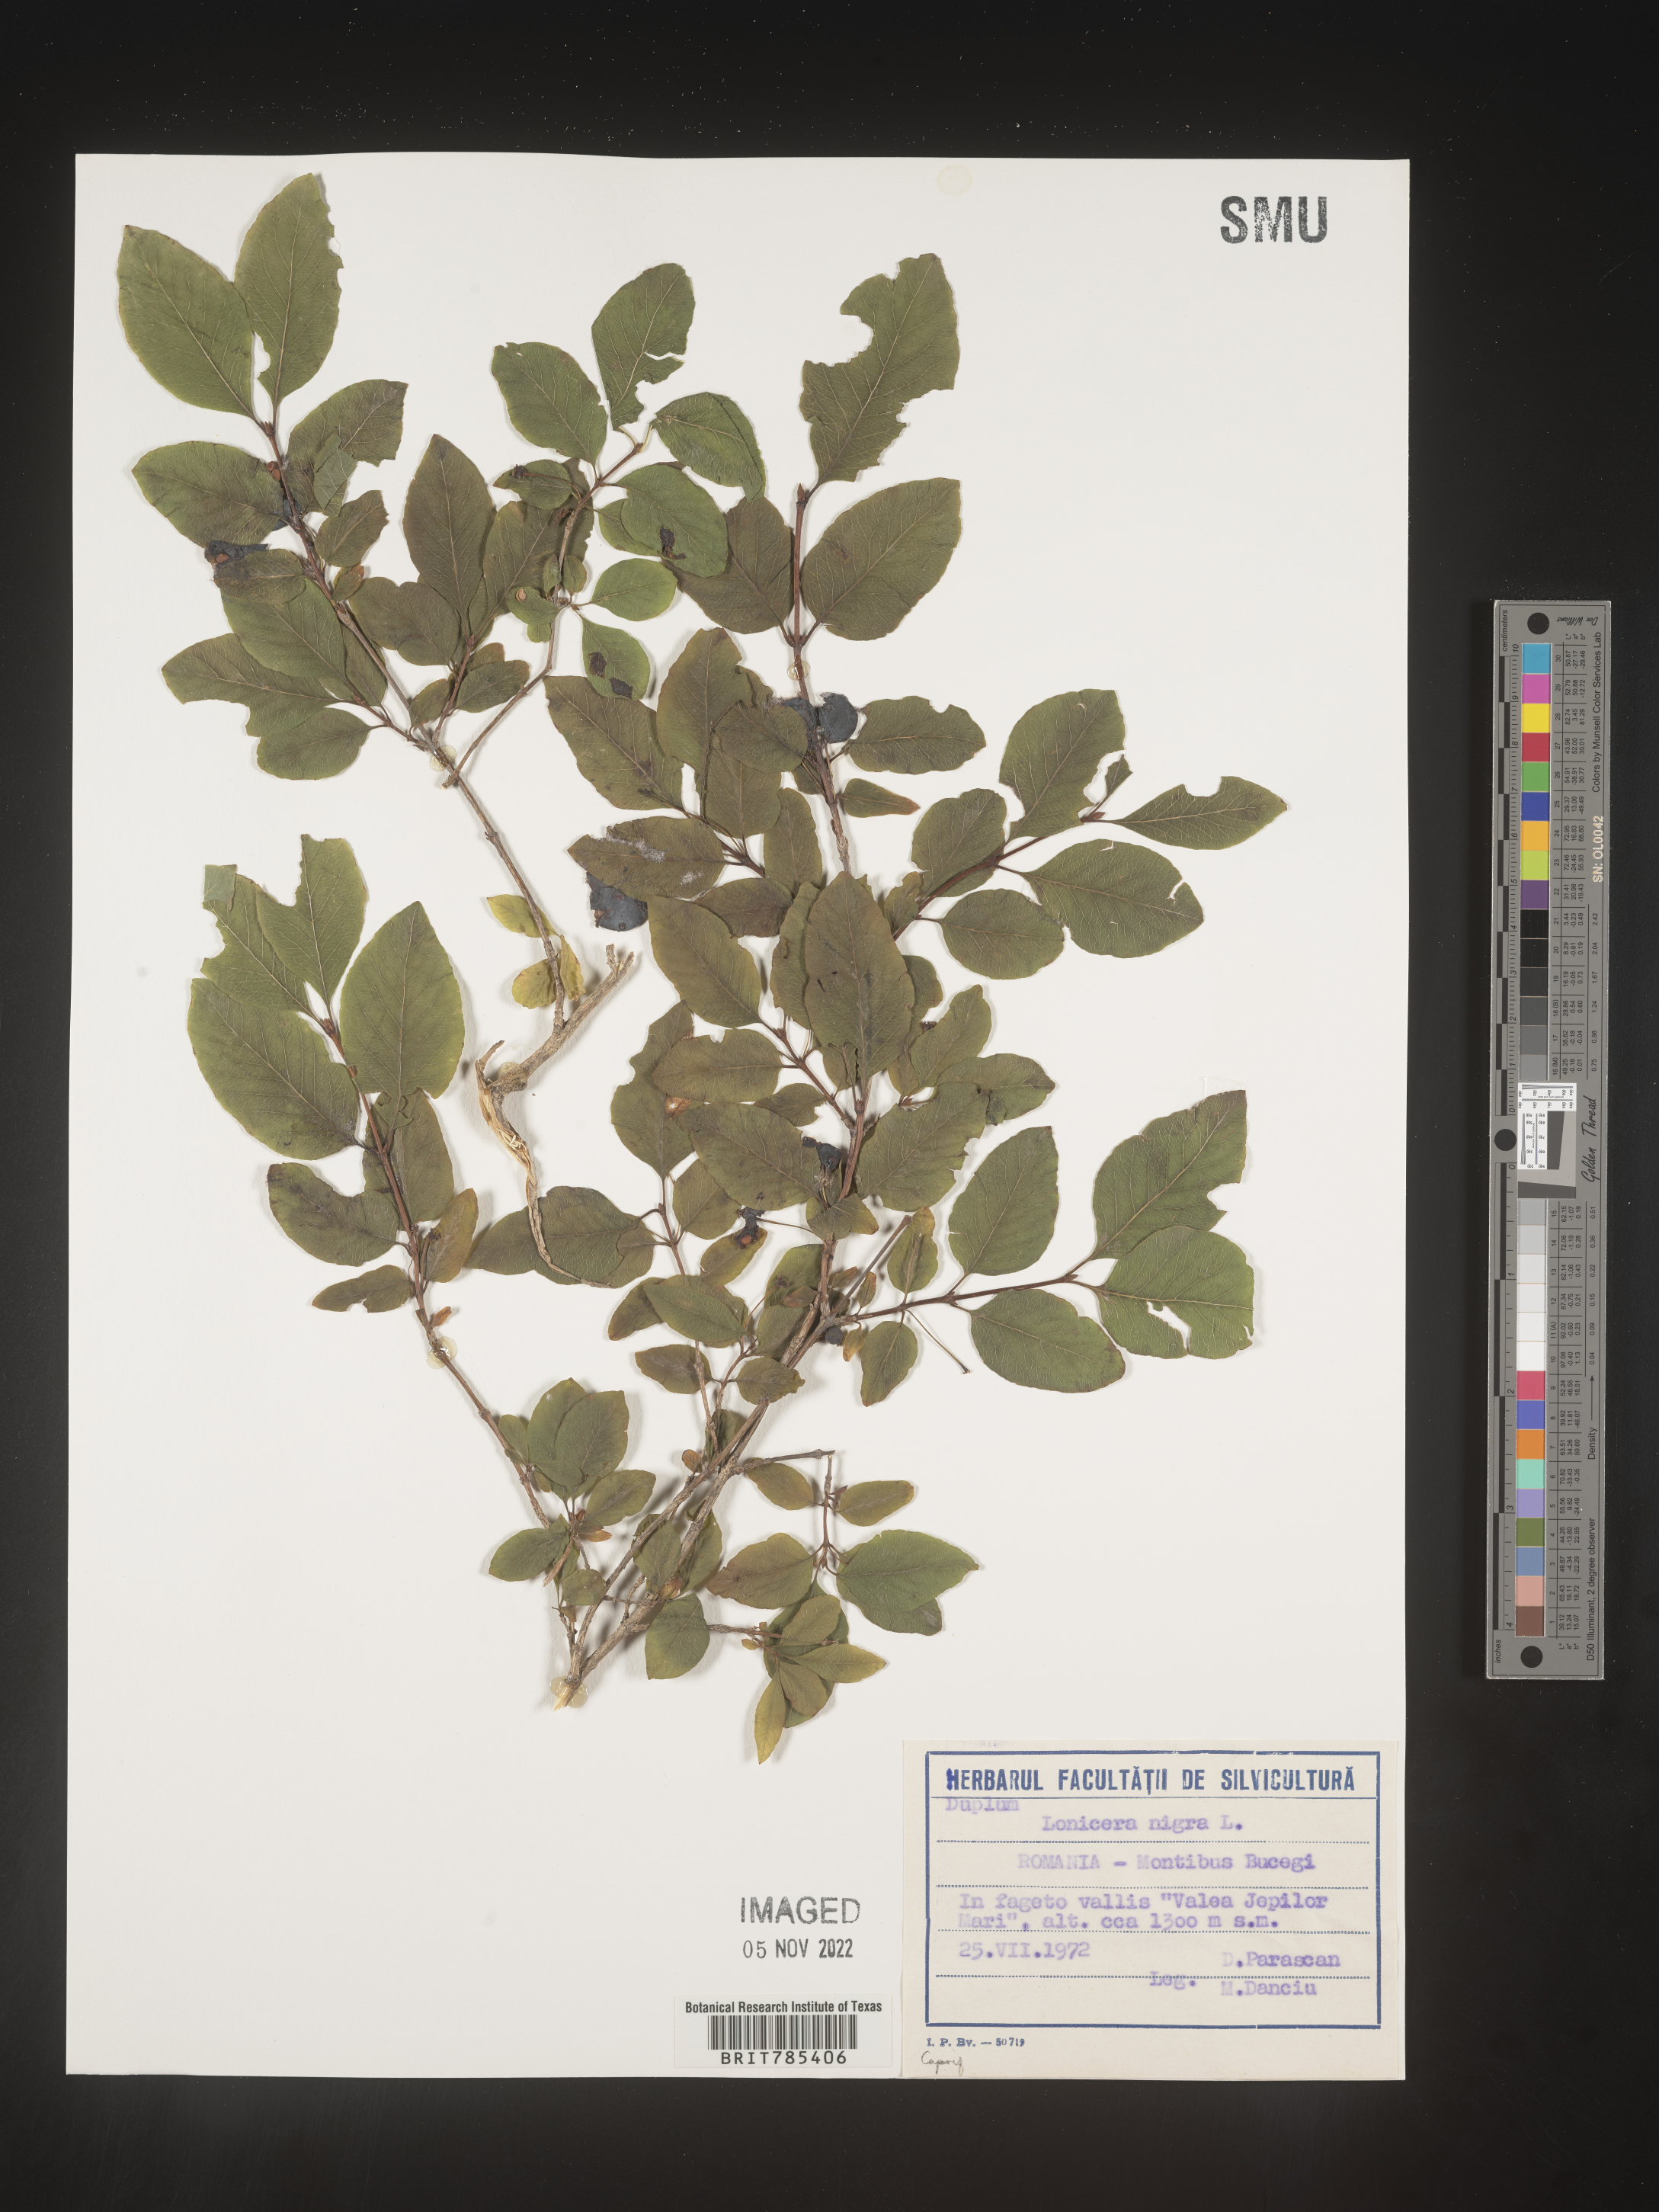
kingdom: Plantae
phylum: Tracheophyta
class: Magnoliopsida
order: Dipsacales
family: Caprifoliaceae
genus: Lonicera
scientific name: Lonicera
